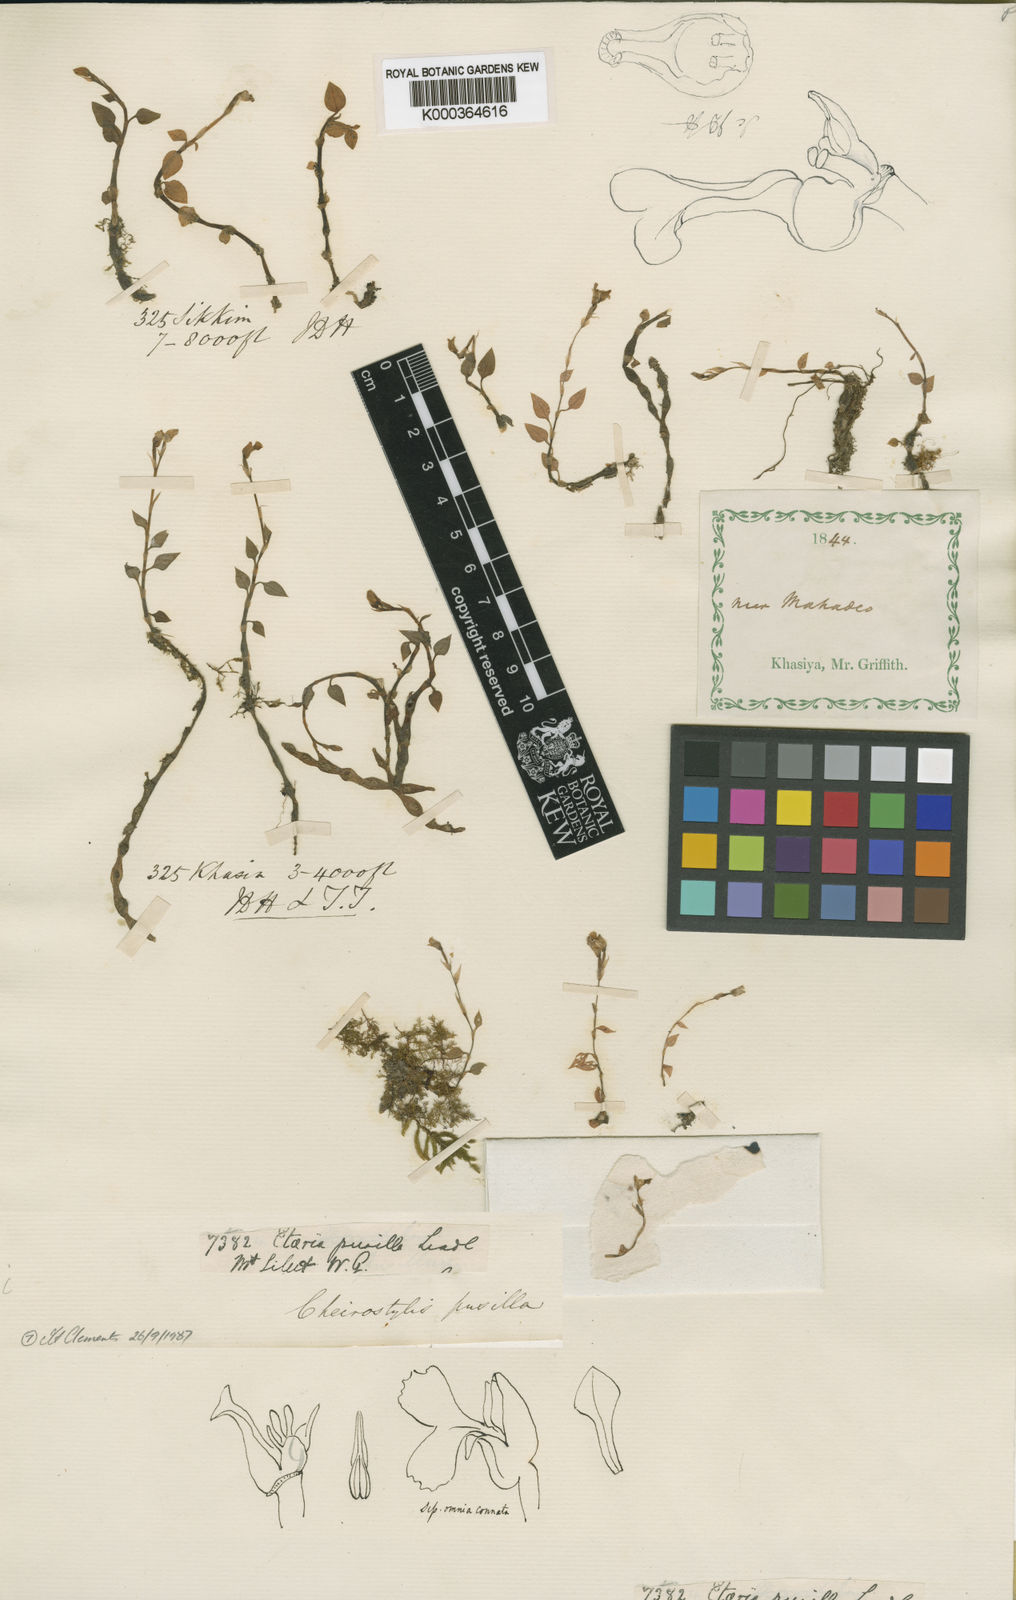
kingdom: Plantae
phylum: Tracheophyta
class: Liliopsida
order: Asparagales
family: Orchidaceae
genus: Cheirostylis
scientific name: Cheirostylis pusilla
